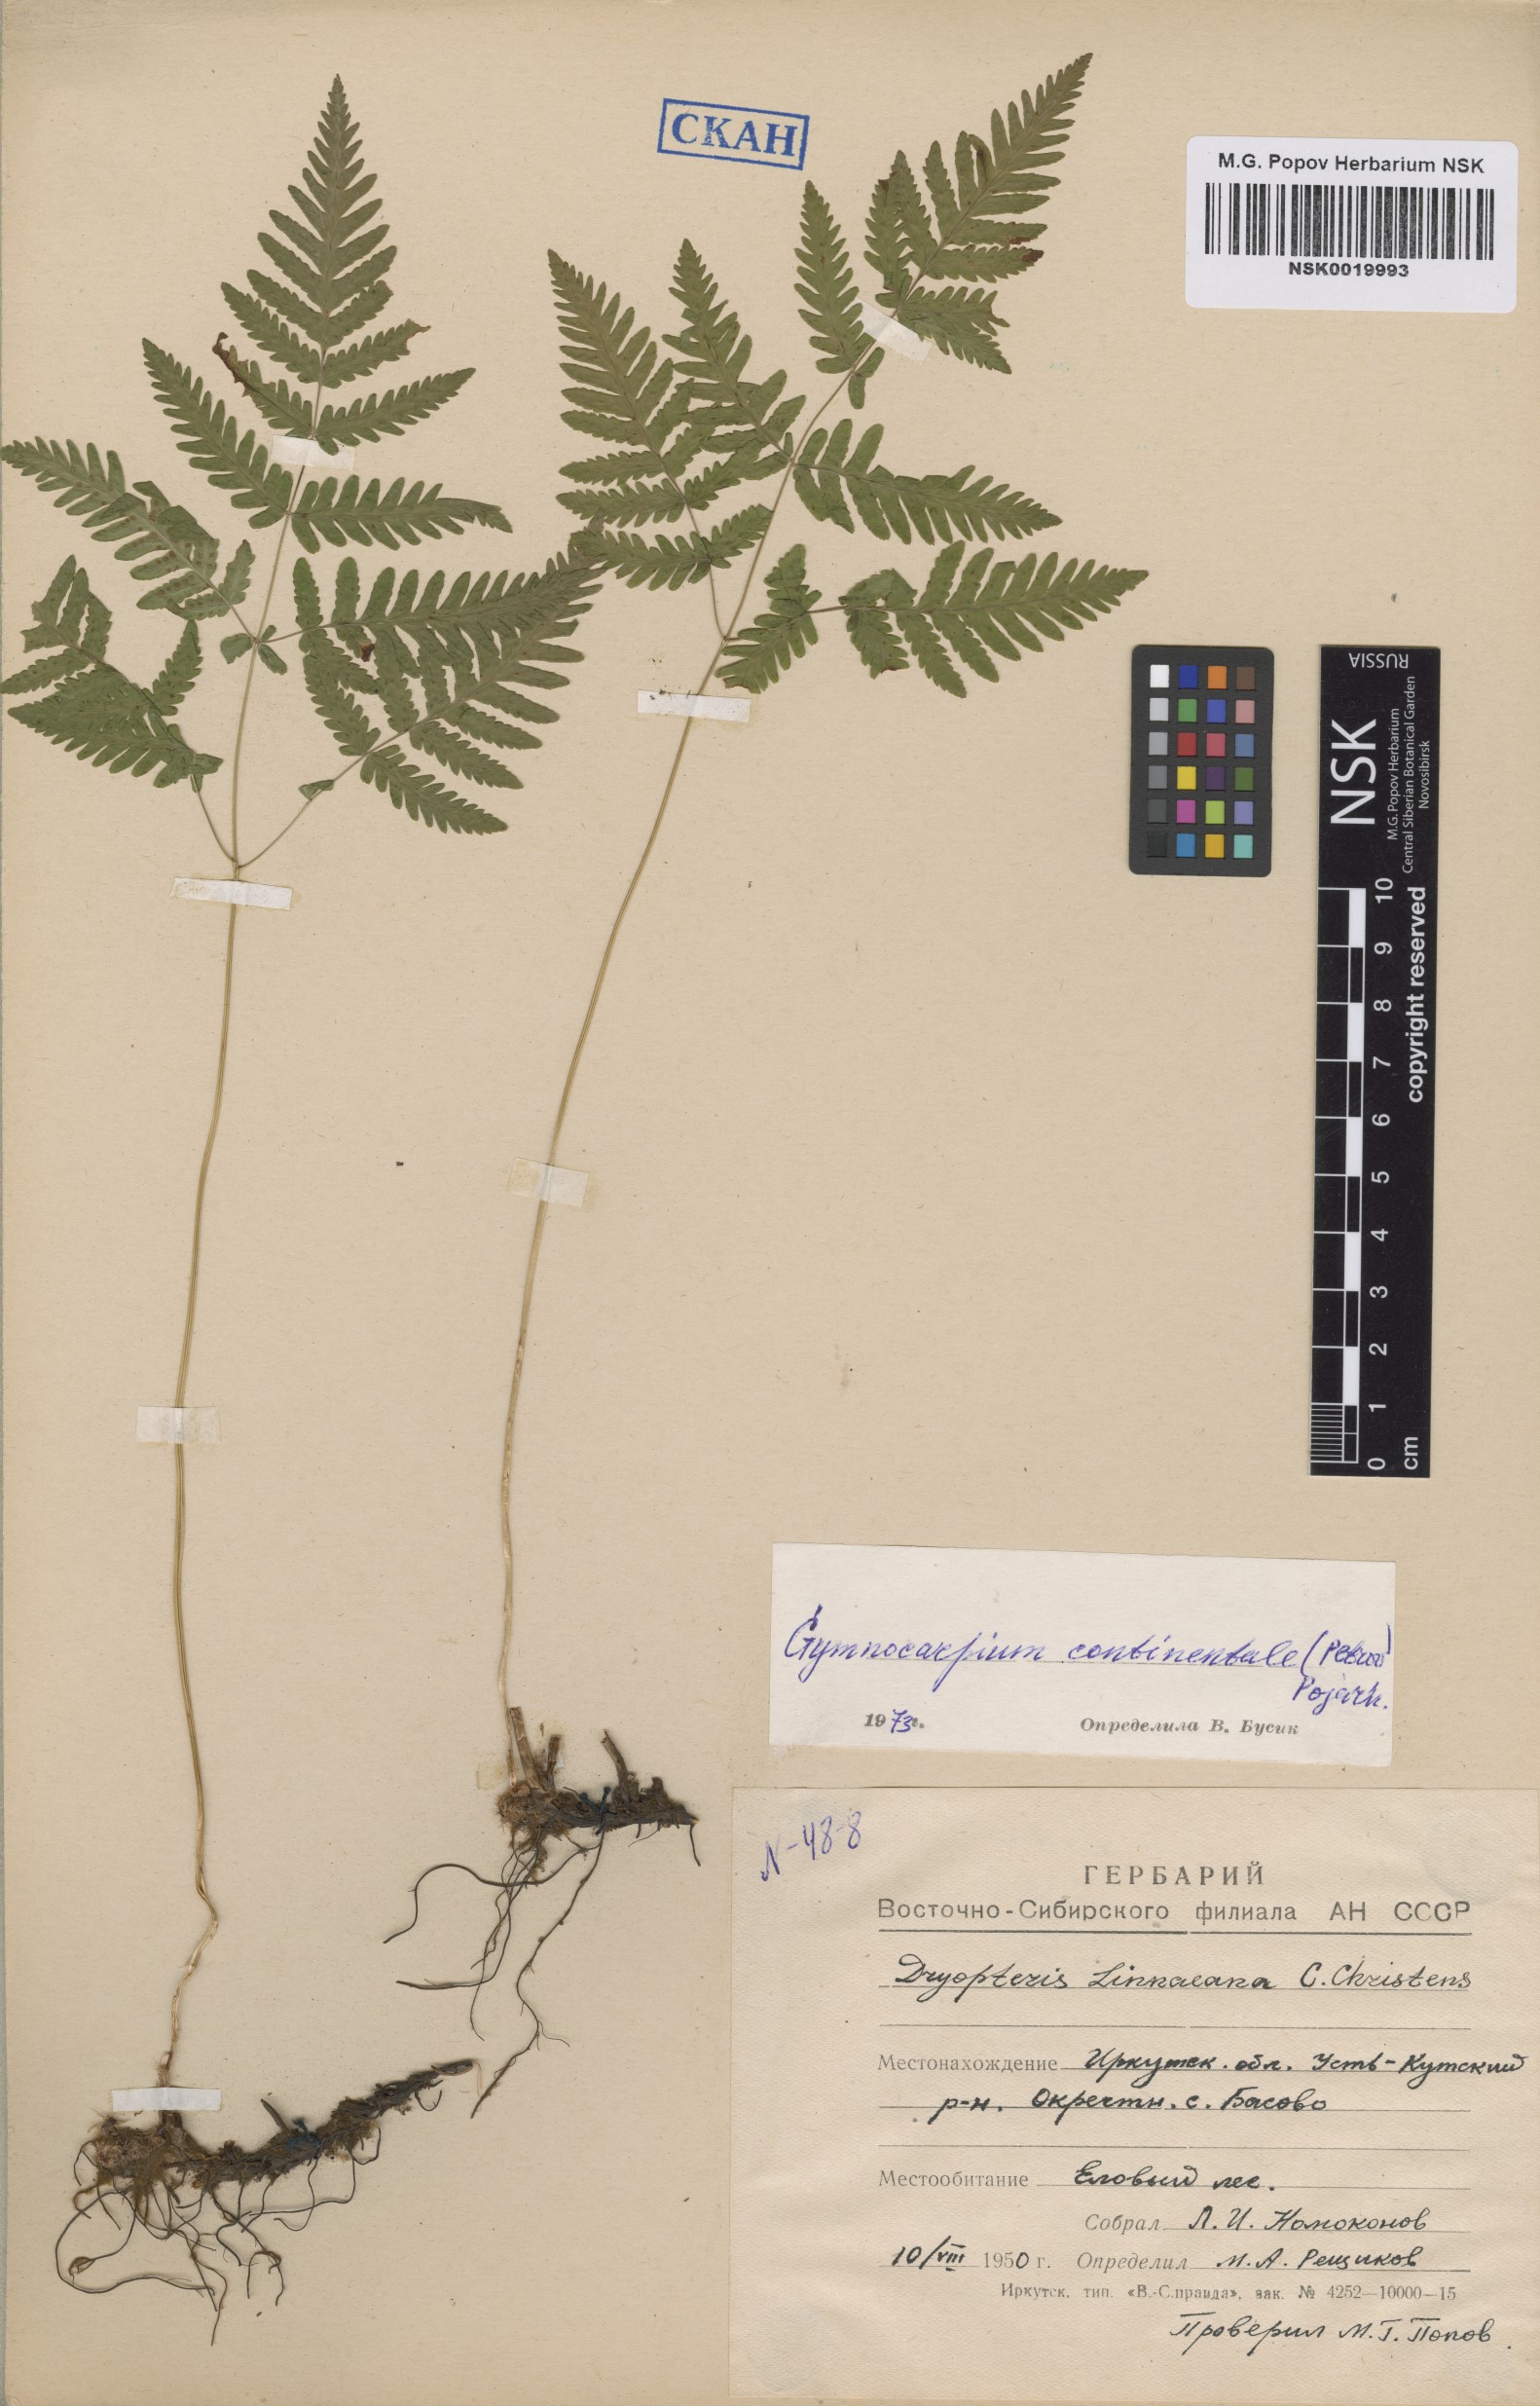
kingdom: Plantae
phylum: Tracheophyta
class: Polypodiopsida
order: Polypodiales
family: Cystopteridaceae
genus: Gymnocarpium
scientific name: Gymnocarpium continentale
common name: Asian oak fern
